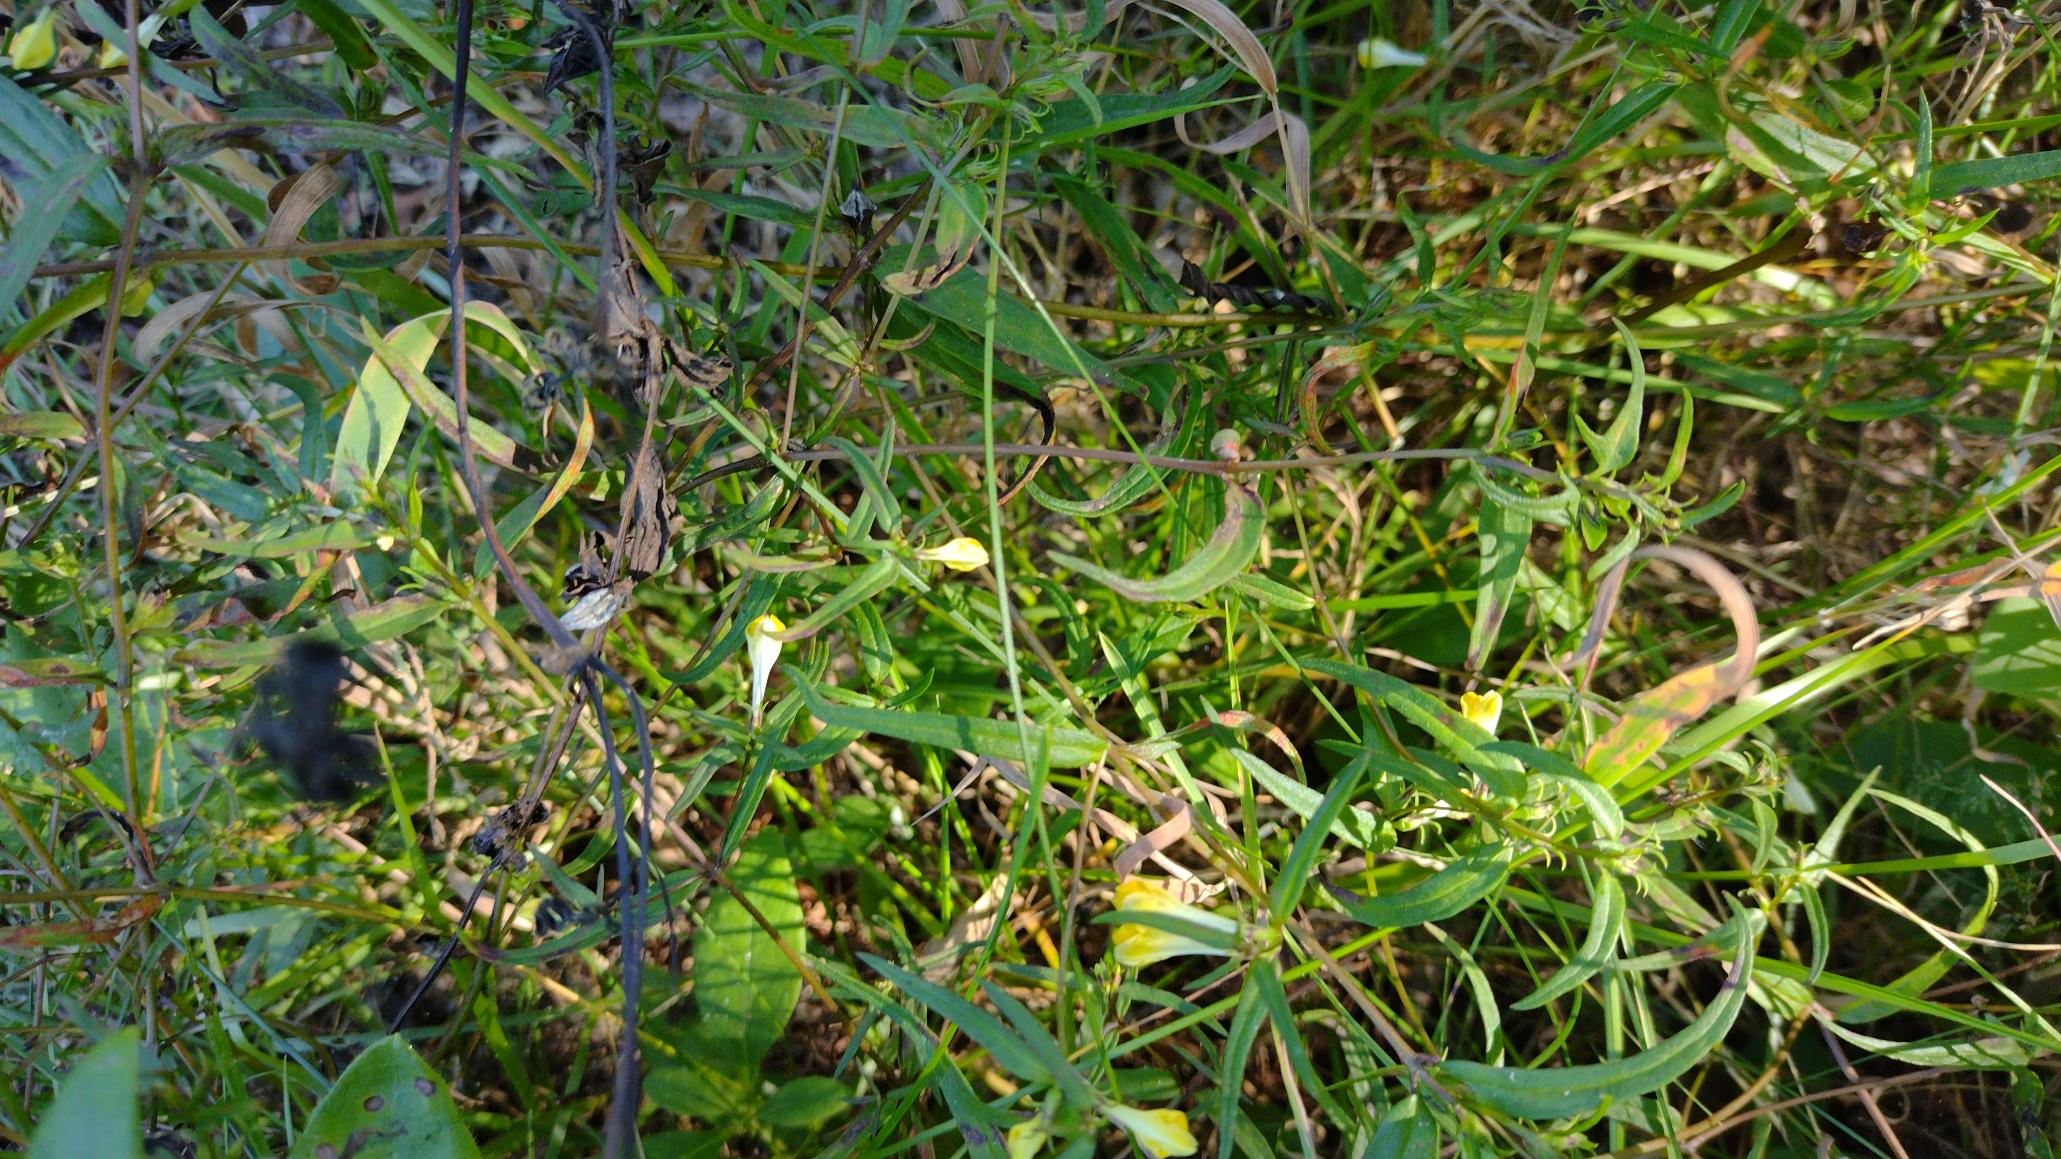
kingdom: Plantae
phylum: Tracheophyta
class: Magnoliopsida
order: Lamiales
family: Orobanchaceae
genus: Melampyrum
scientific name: Melampyrum pratense
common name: Almindelig kohvede
